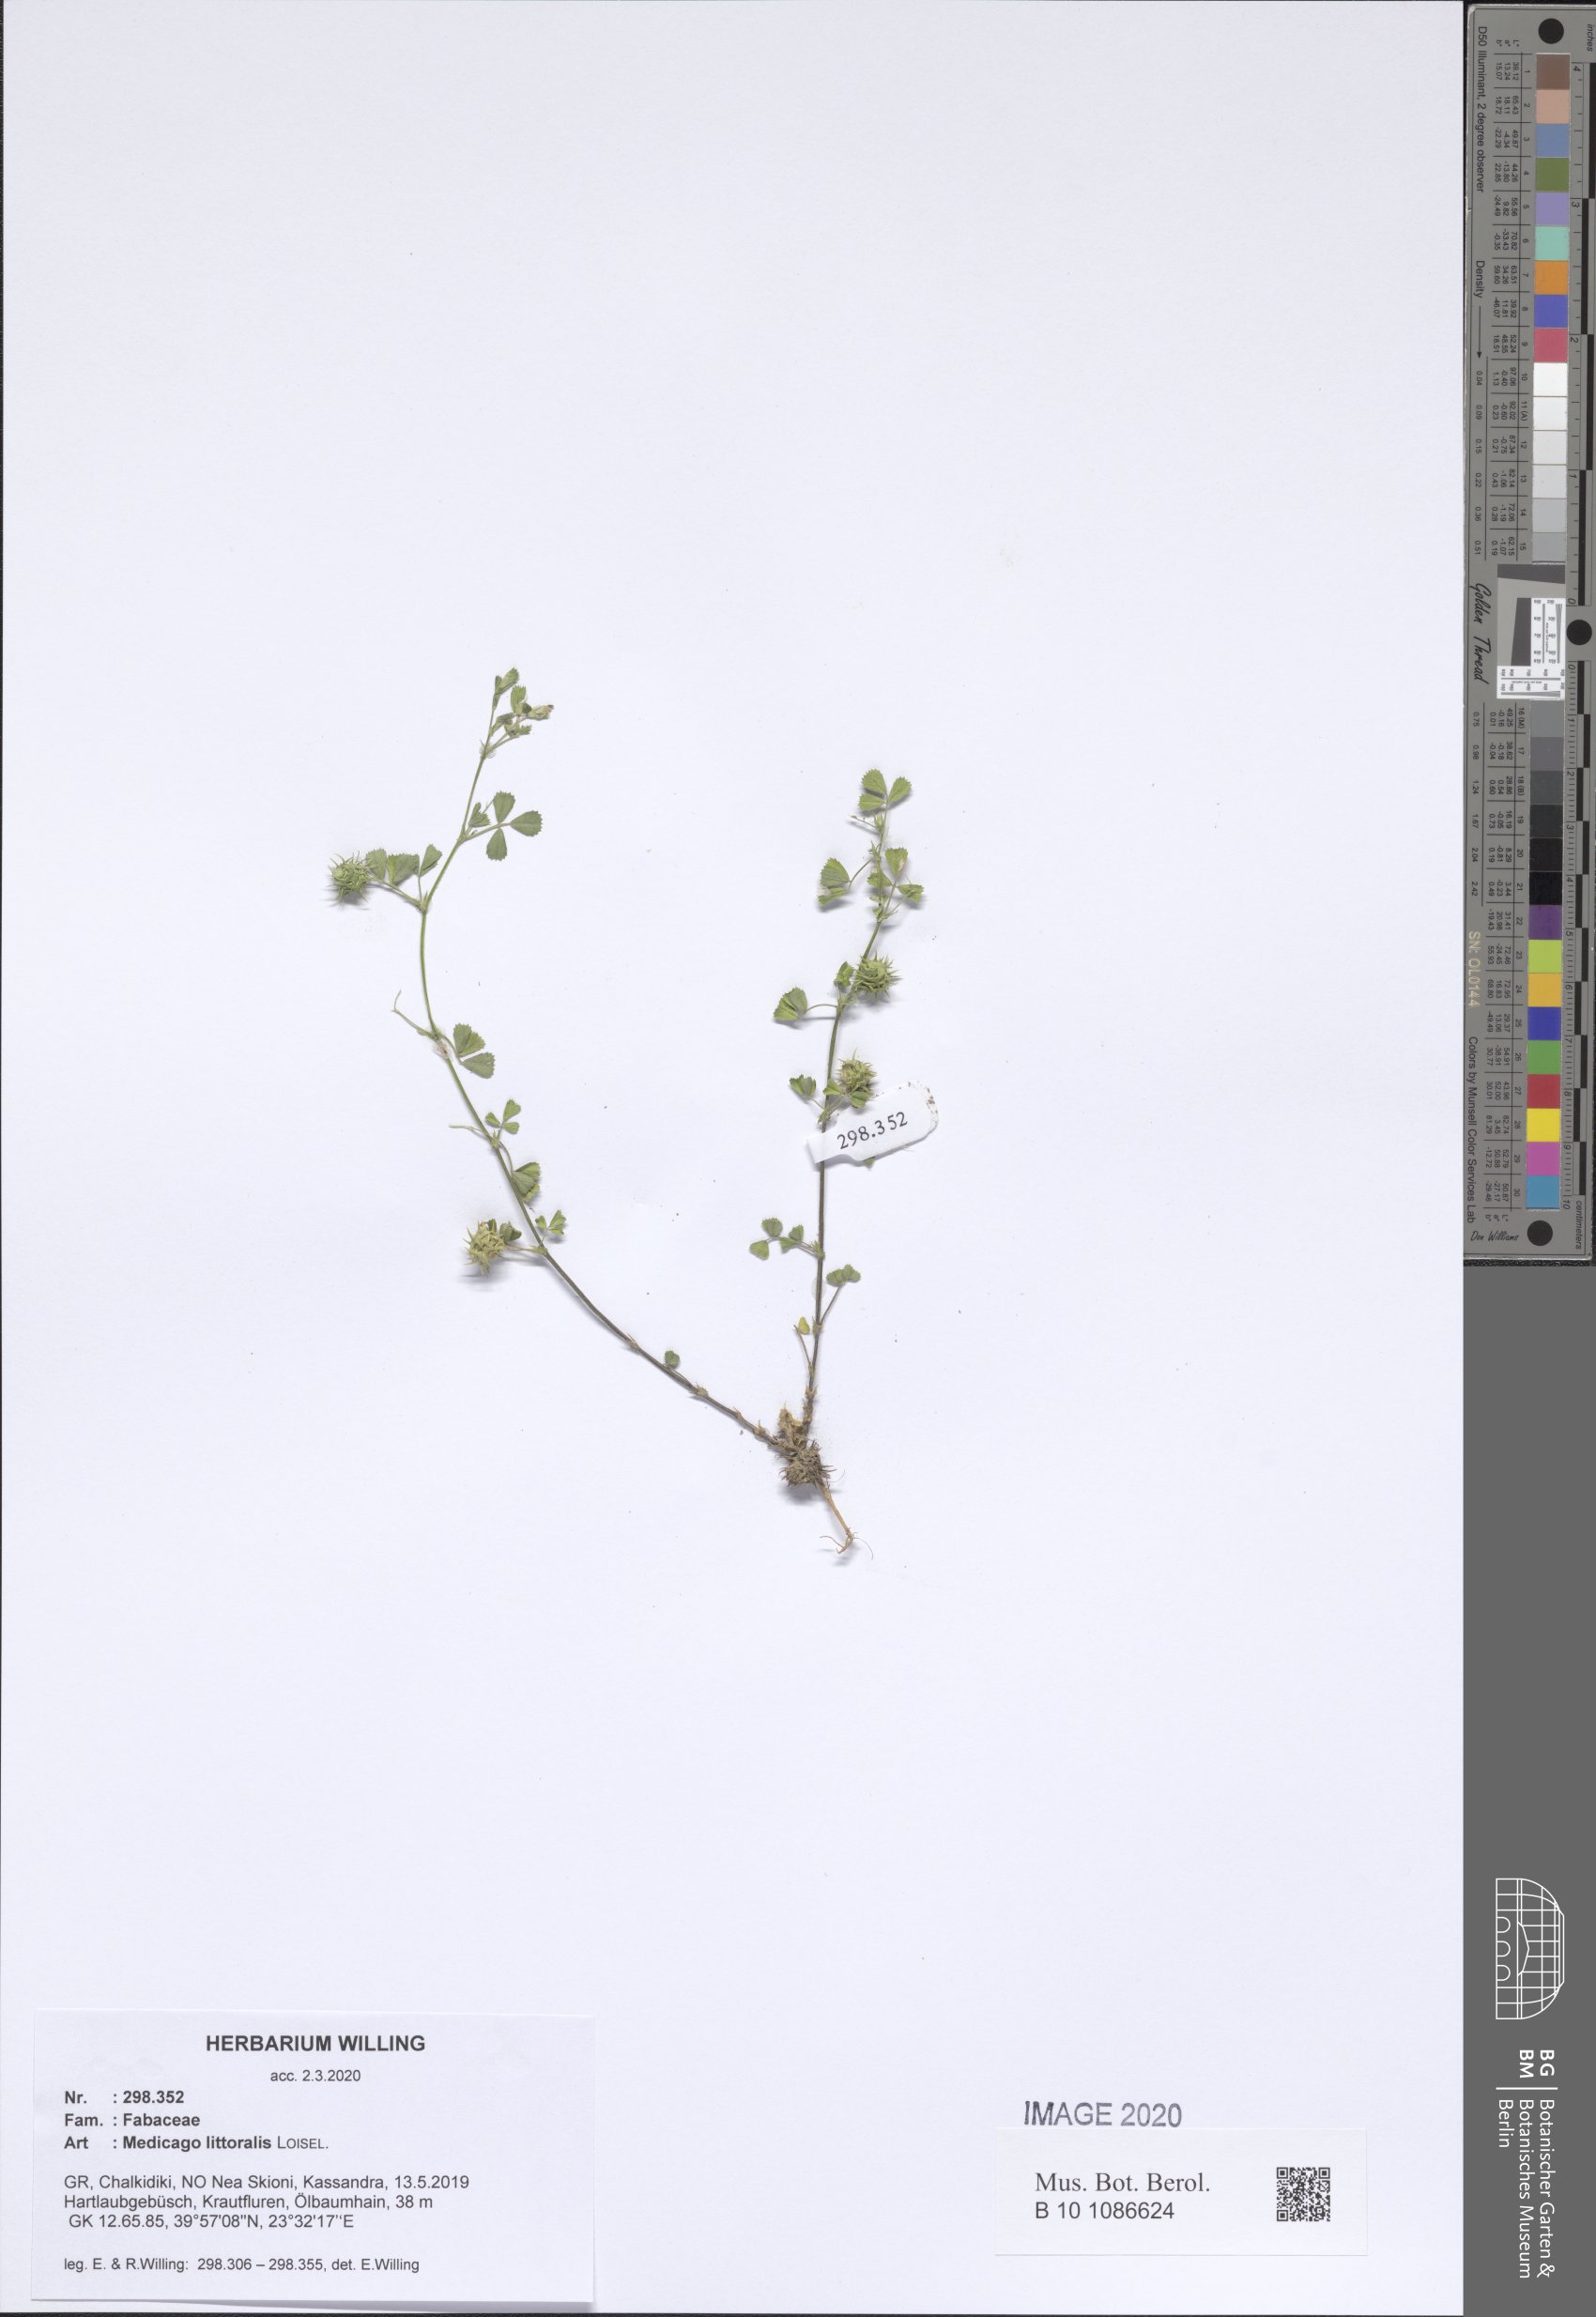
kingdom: Plantae
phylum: Tracheophyta
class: Magnoliopsida
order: Fabales
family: Fabaceae
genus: Medicago
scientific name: Medicago littoralis
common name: Shore medick
